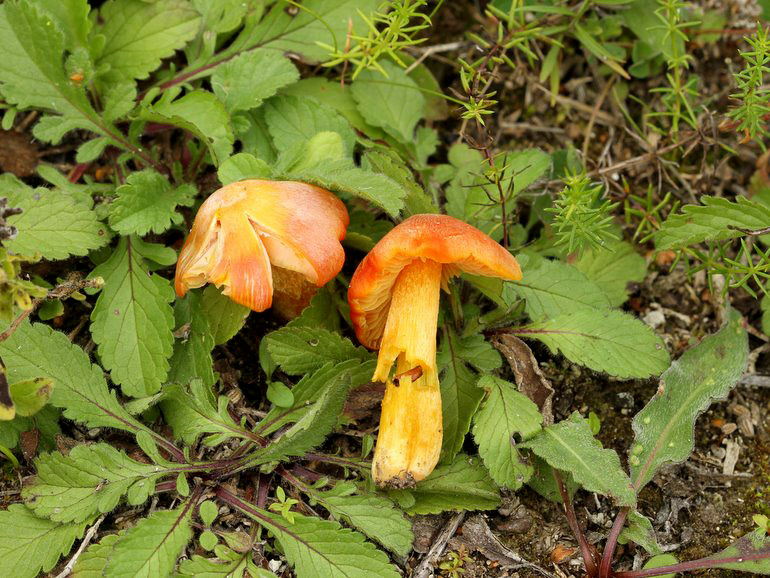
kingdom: Fungi
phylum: Basidiomycota
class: Agaricomycetes
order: Agaricales
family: Hygrophoraceae
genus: Hygrocybe
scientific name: Hygrocybe acutoconica
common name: Konrads vokshat
